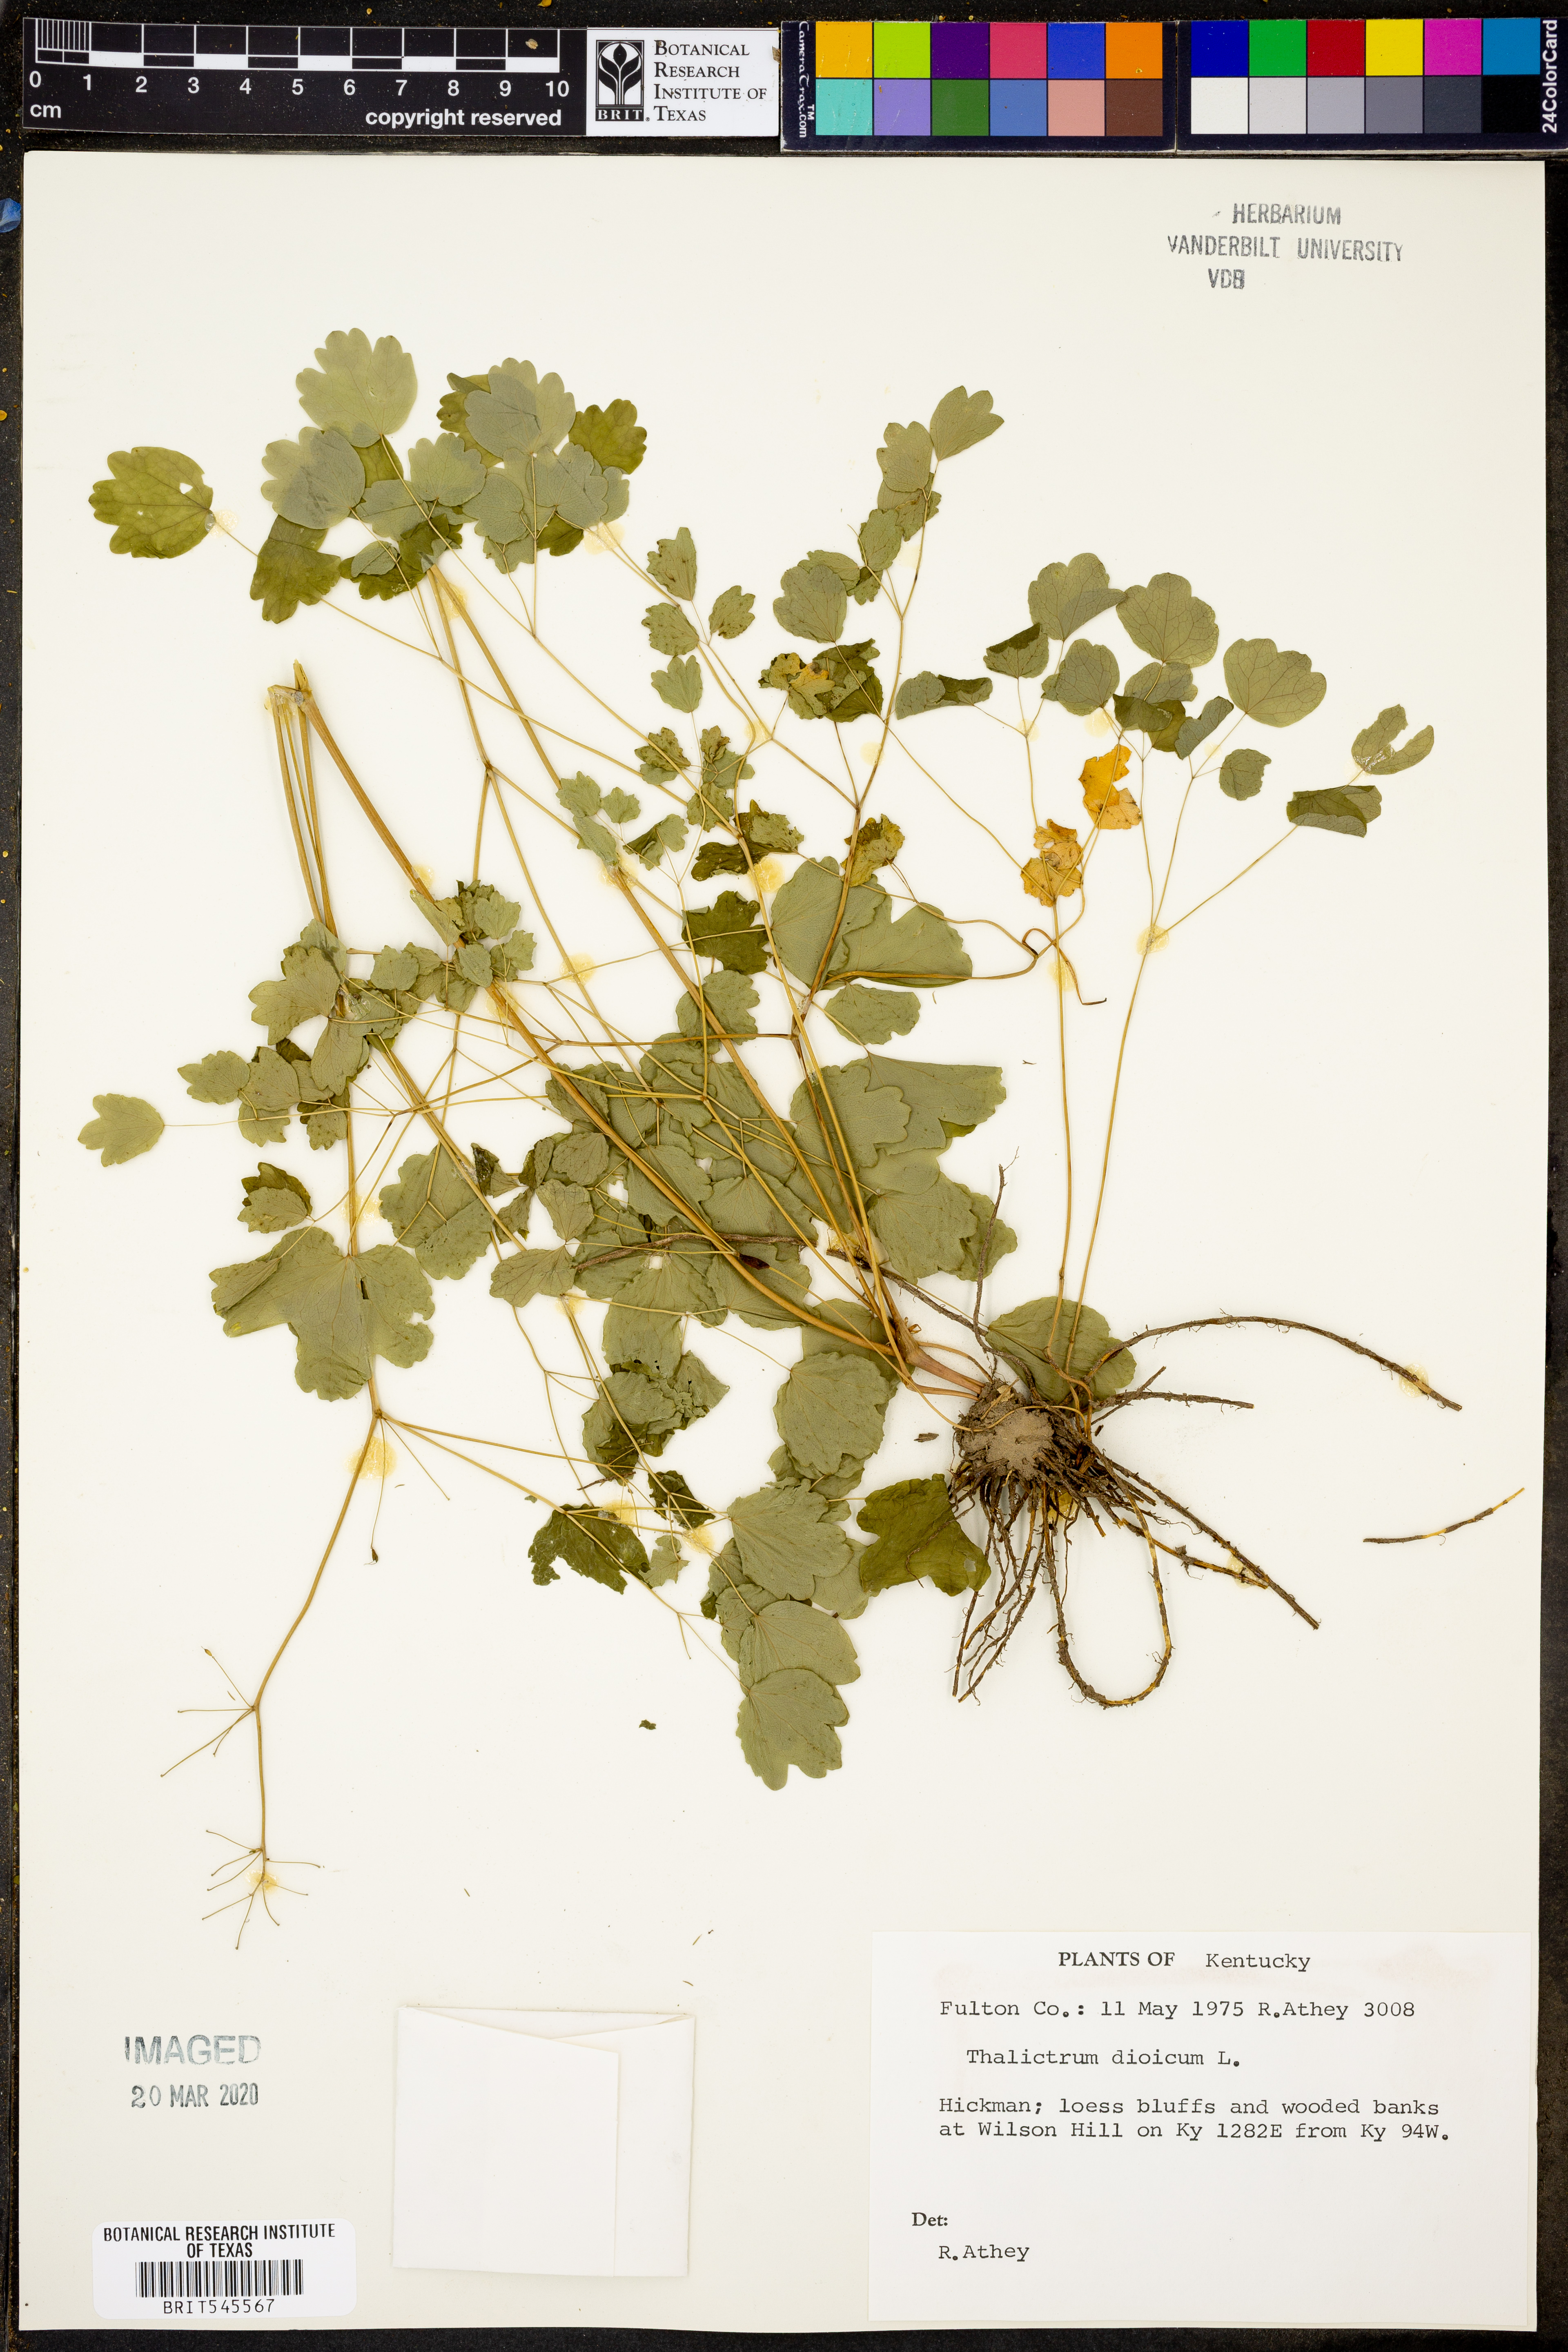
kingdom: Plantae
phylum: Tracheophyta
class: Magnoliopsida
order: Ranunculales
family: Ranunculaceae
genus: Thalictrum
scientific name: Thalictrum dioicum
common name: Early meadow-rue
